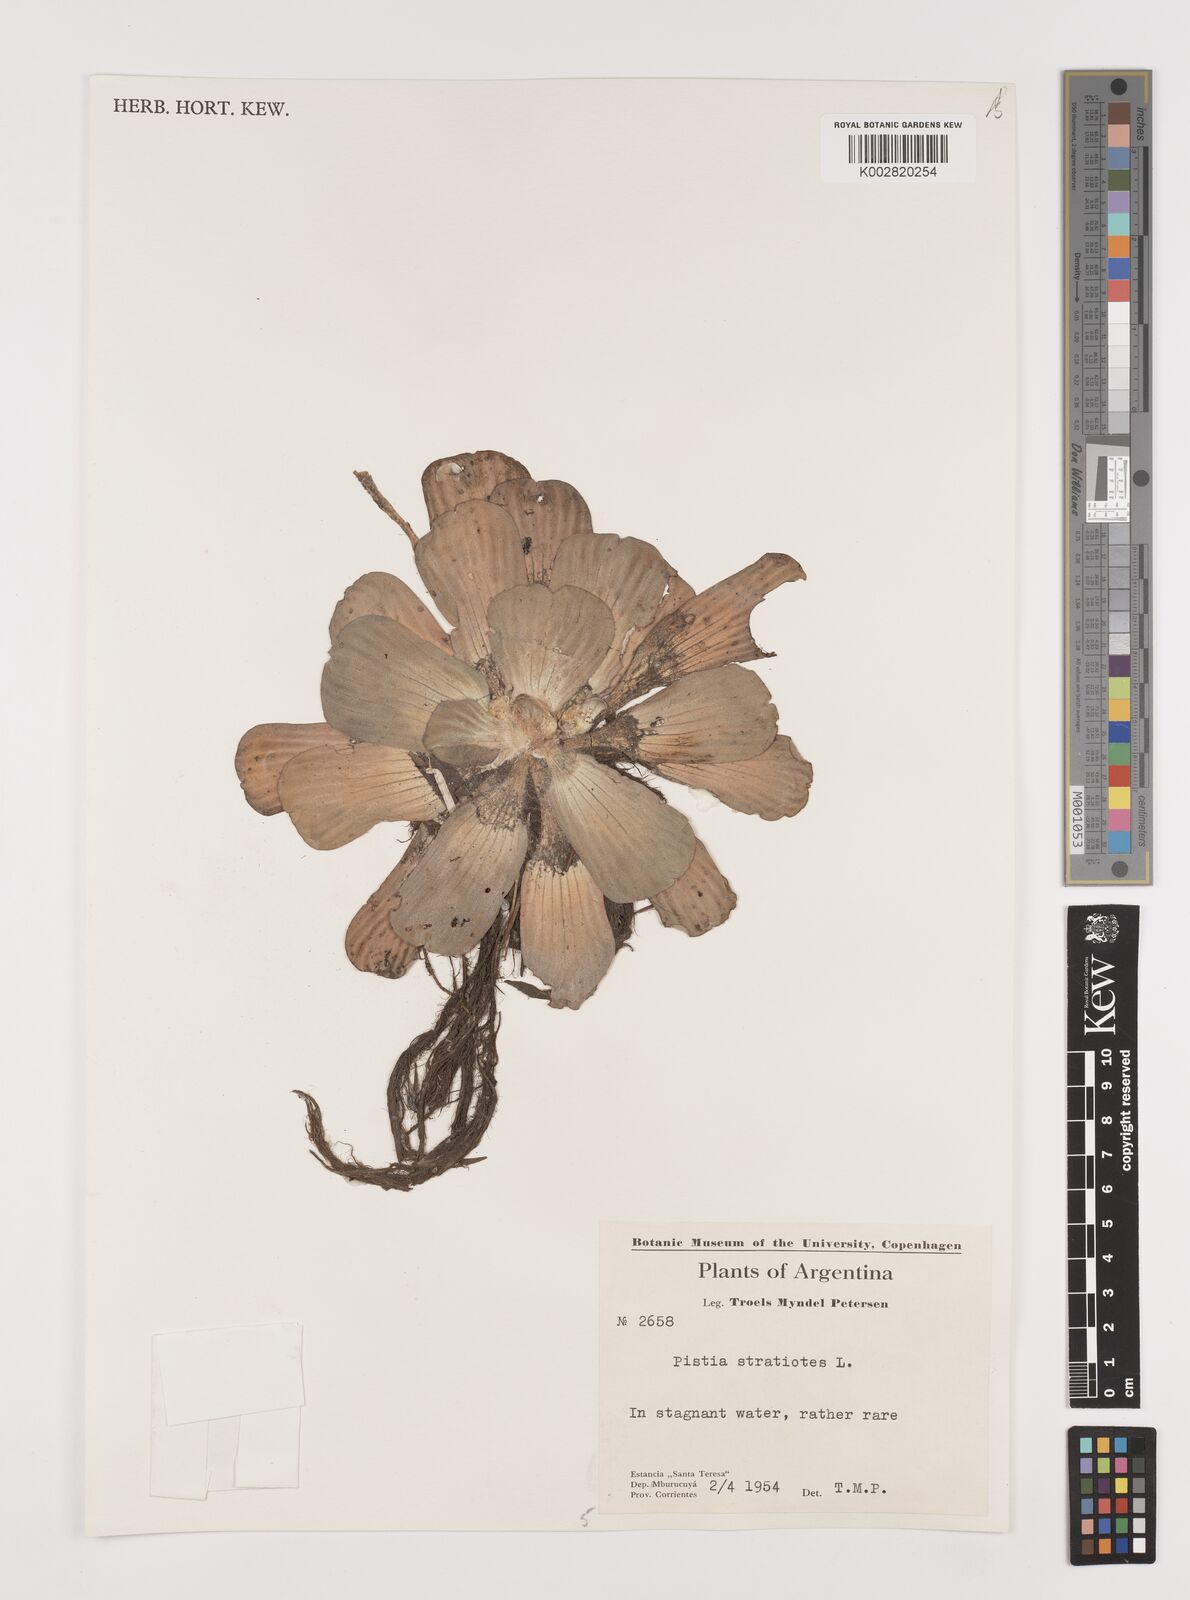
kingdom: Plantae
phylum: Tracheophyta
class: Liliopsida
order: Alismatales
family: Araceae
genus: Pistia
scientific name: Pistia stratiotes
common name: Water lettuce
